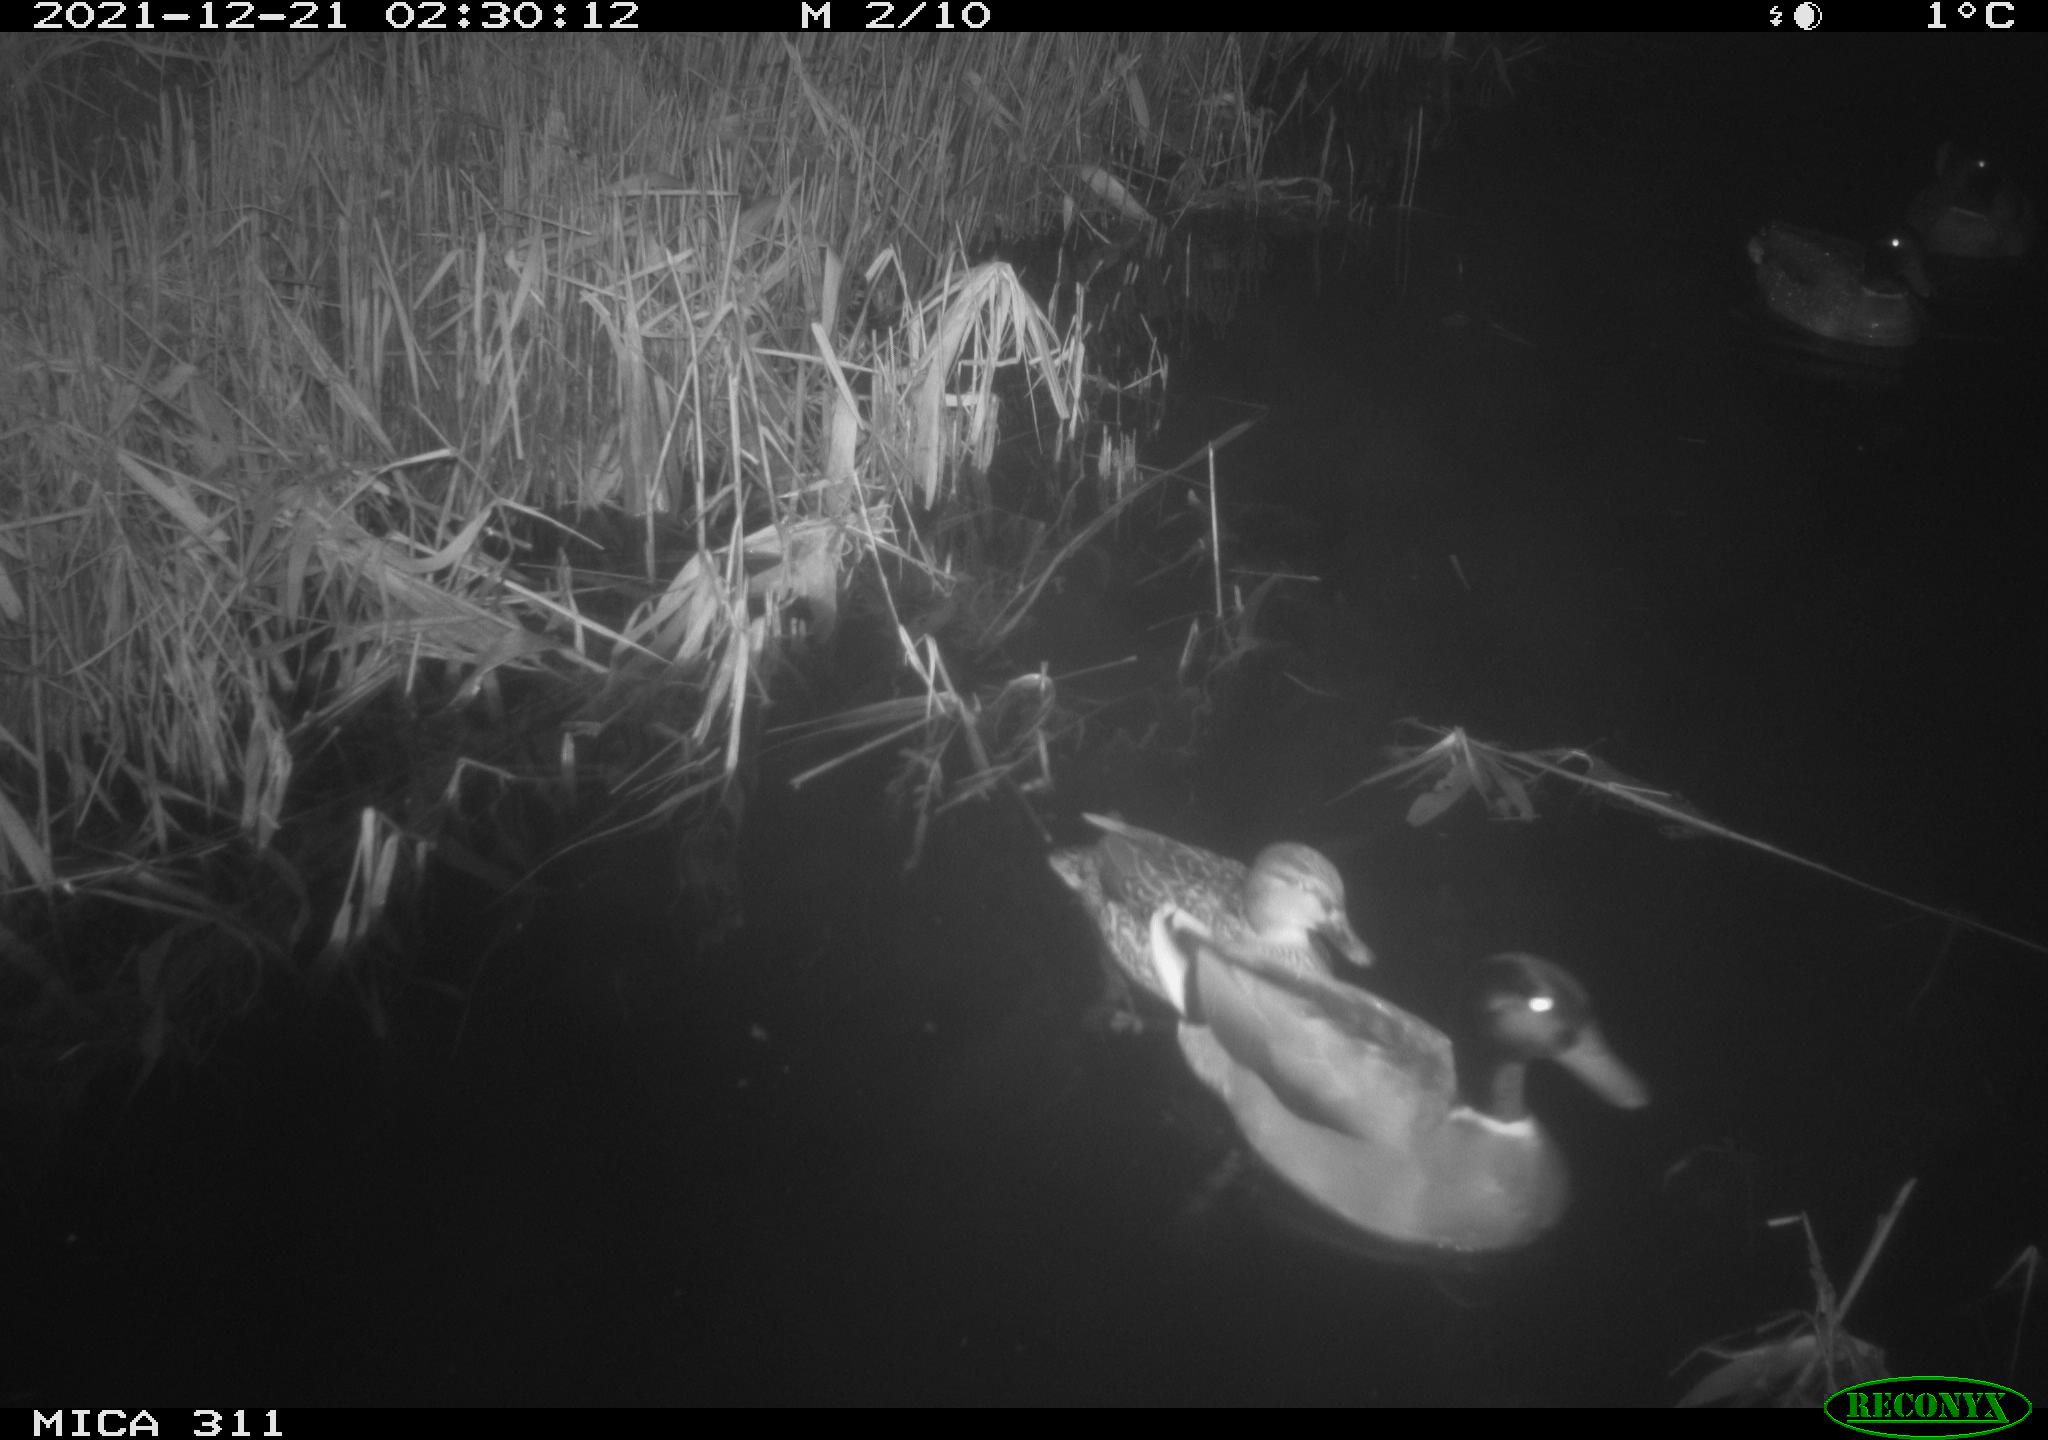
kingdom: Animalia
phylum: Chordata
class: Aves
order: Anseriformes
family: Anatidae
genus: Mareca
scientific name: Mareca strepera
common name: Gadwall
